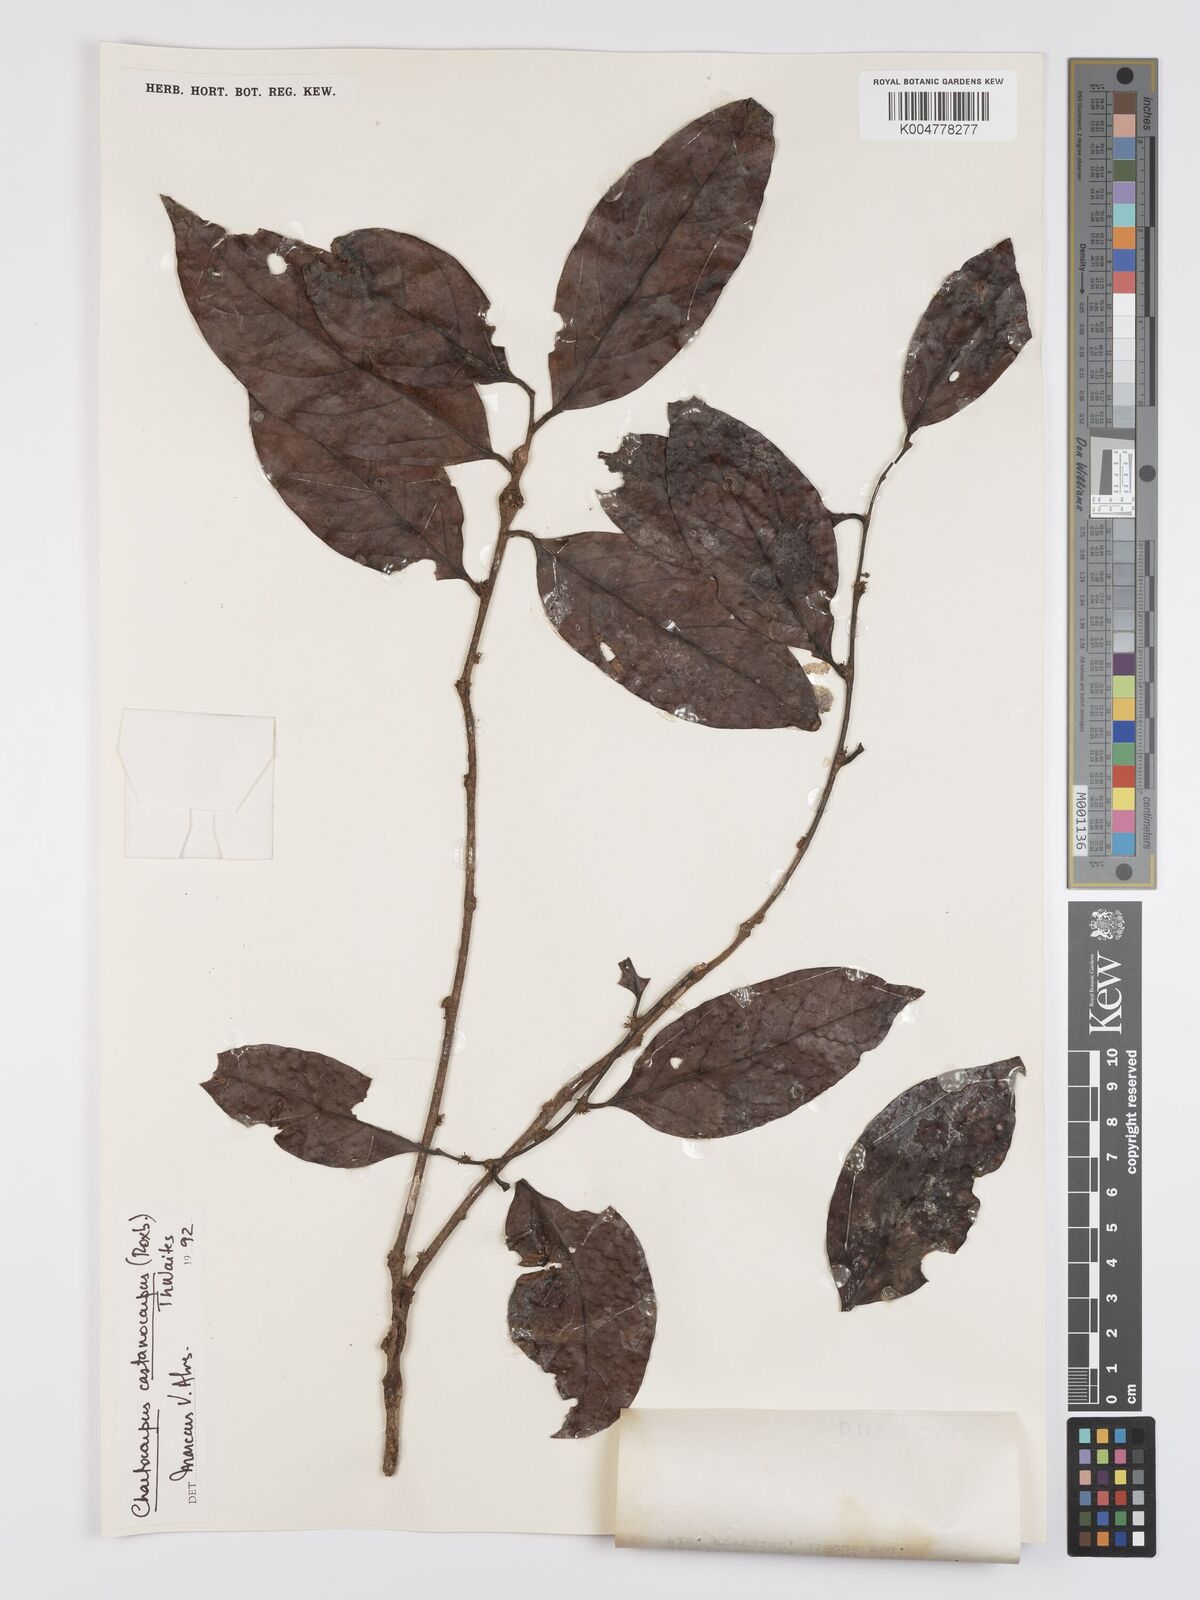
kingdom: Plantae
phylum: Tracheophyta
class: Magnoliopsida
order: Malpighiales
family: Peraceae
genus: Chaetocarpus
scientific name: Chaetocarpus castanocarpus
